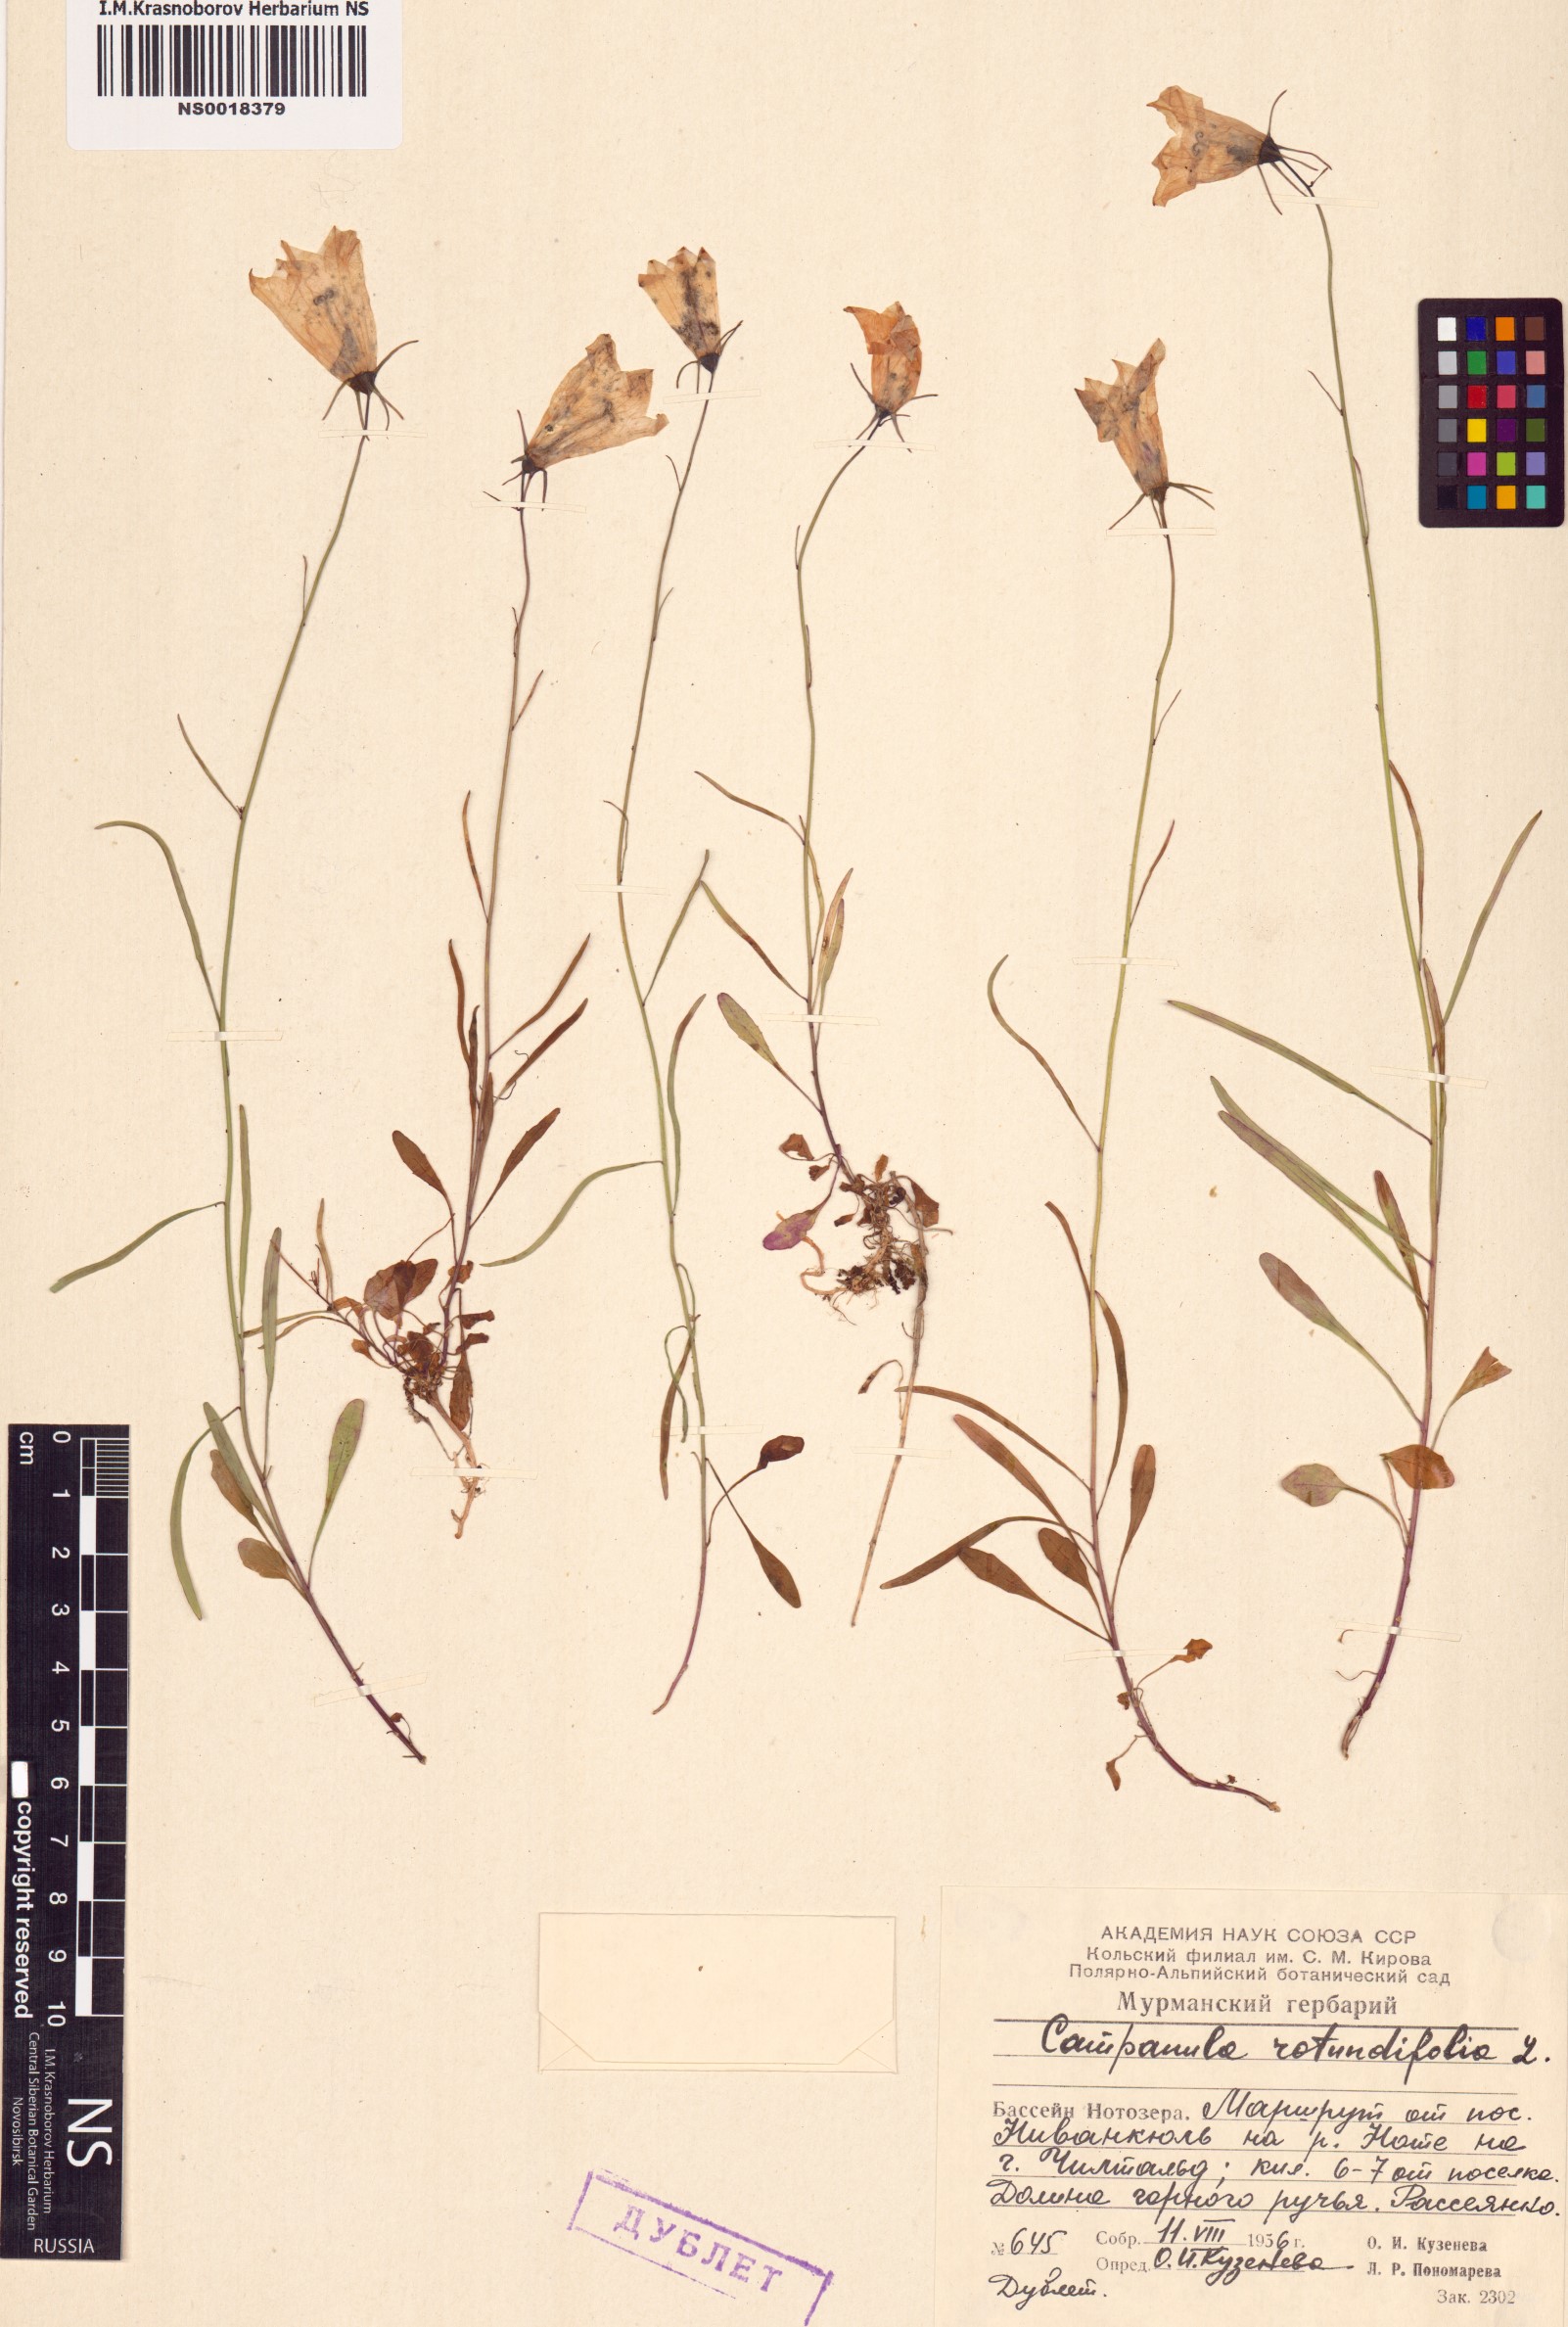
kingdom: Plantae
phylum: Tracheophyta
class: Magnoliopsida
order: Asterales
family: Campanulaceae
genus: Campanula
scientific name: Campanula rotundifolia
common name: Harebell
